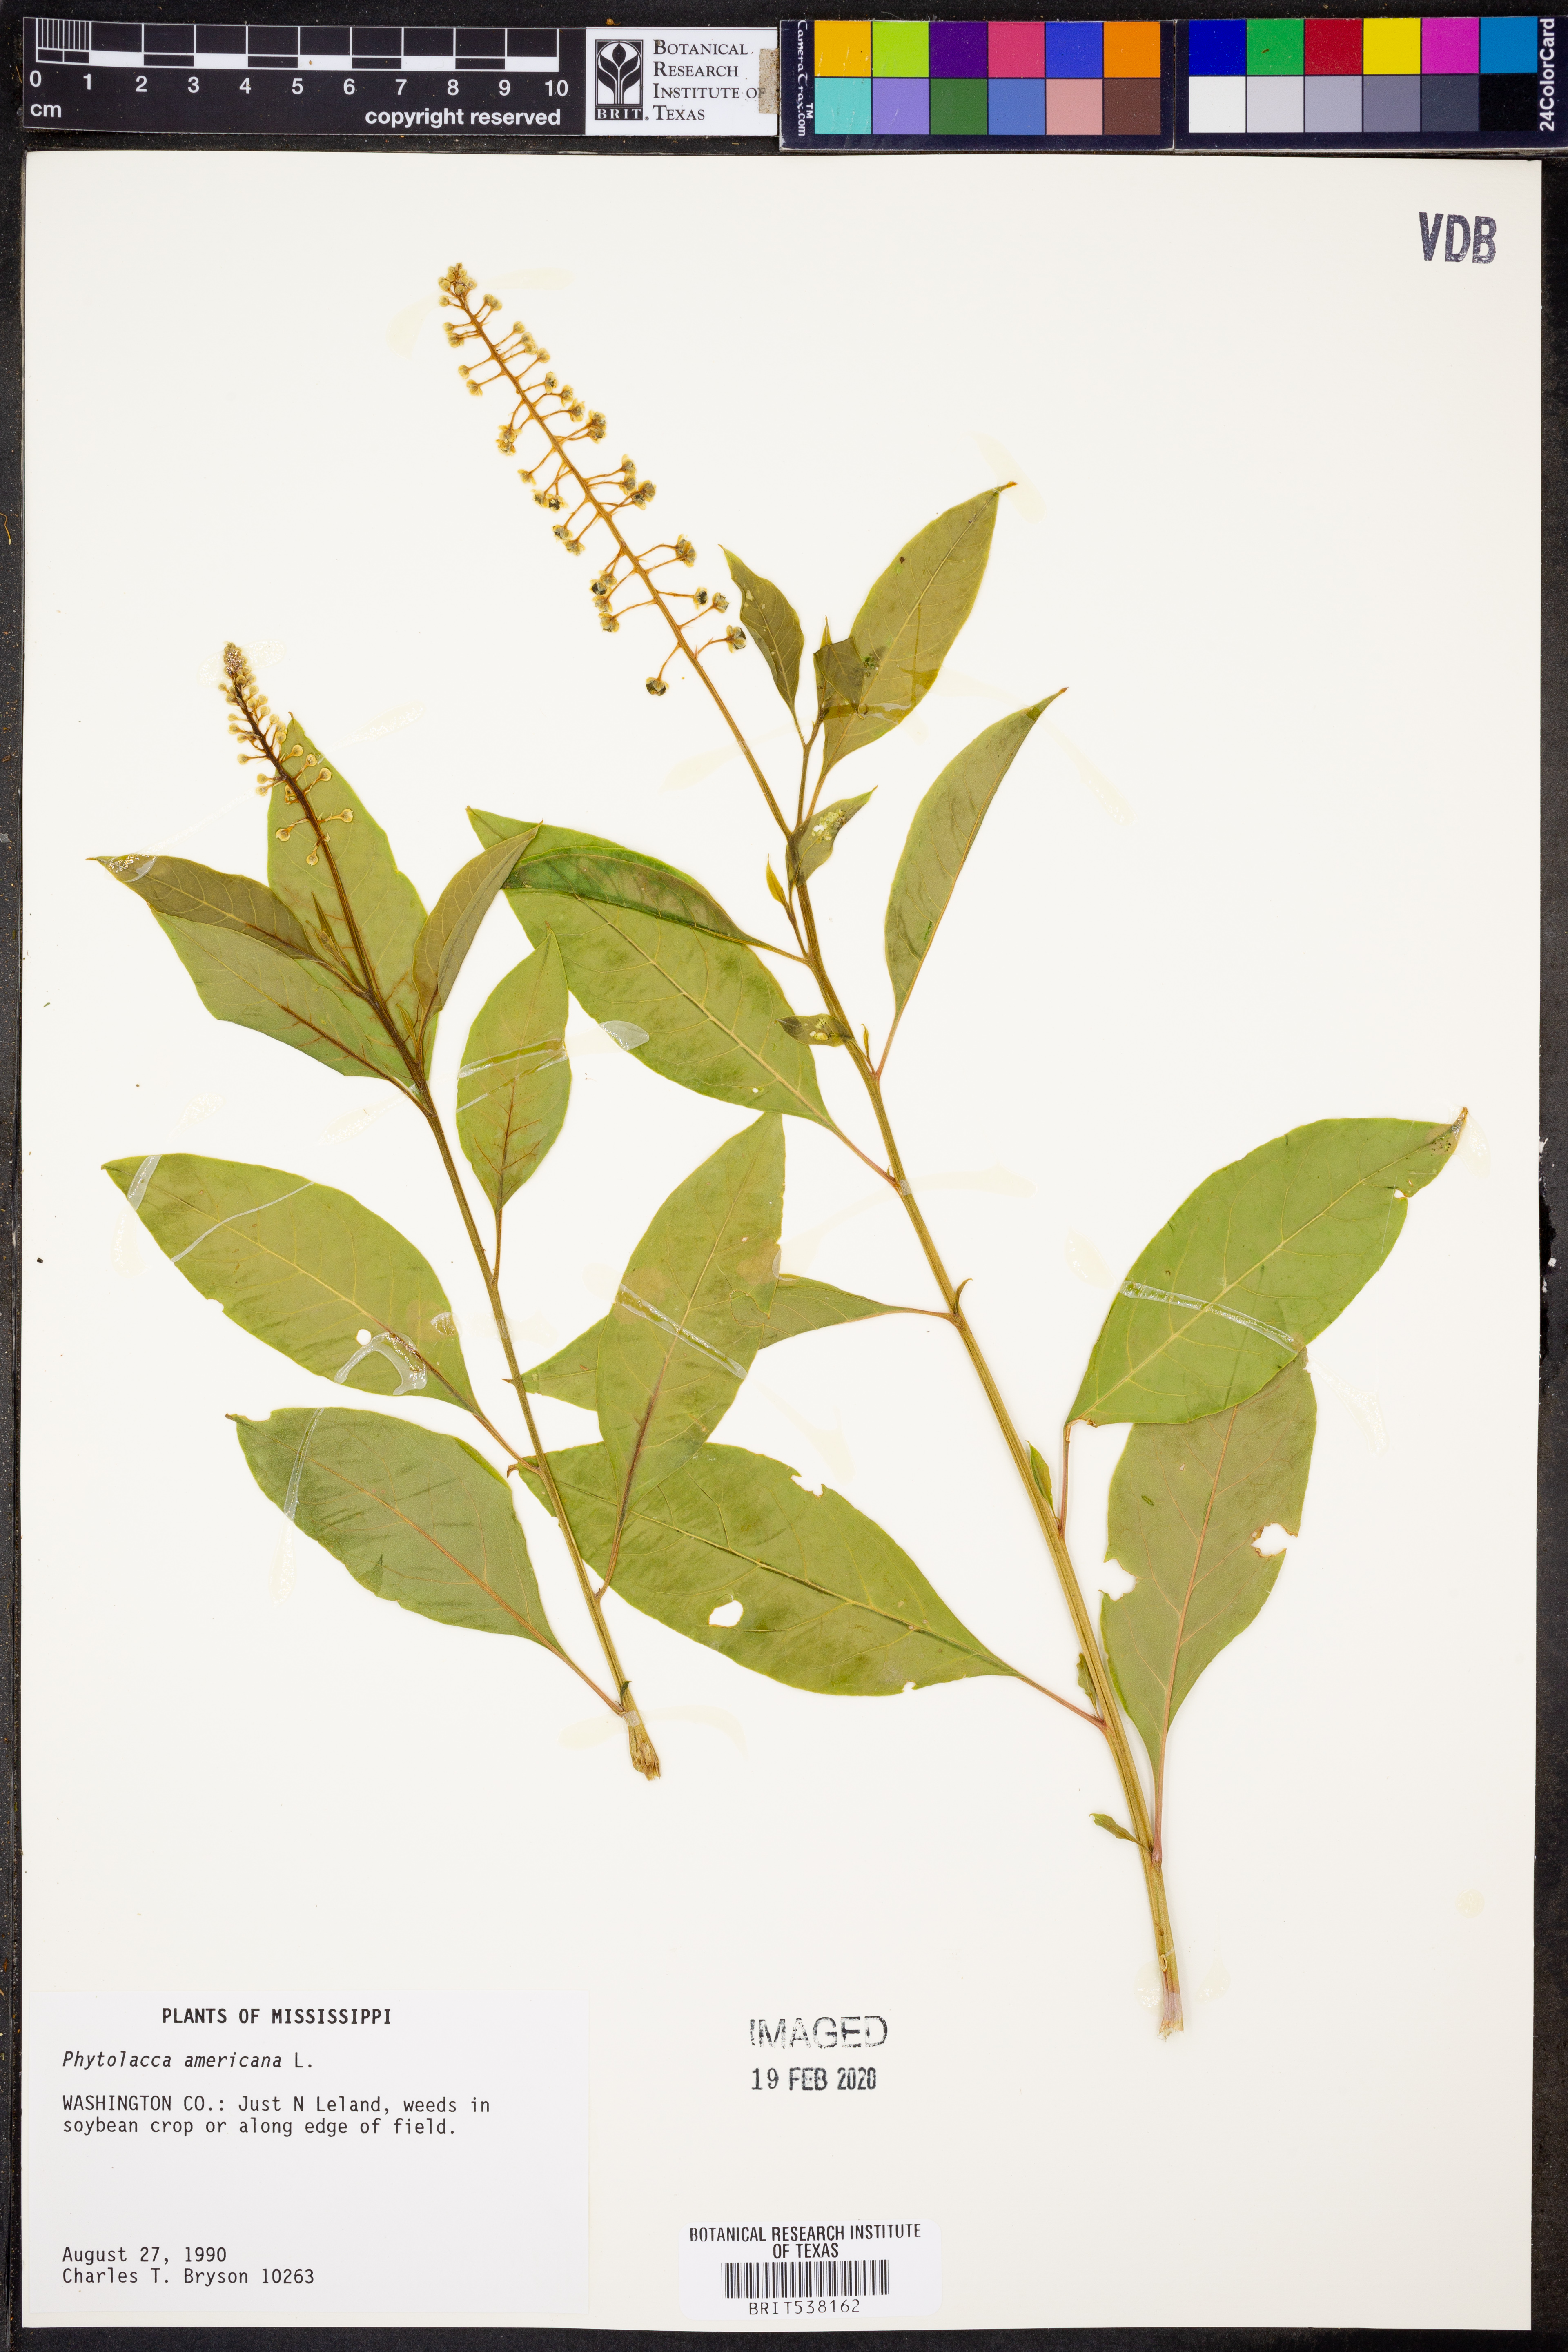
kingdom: Plantae
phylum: Tracheophyta
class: Magnoliopsida
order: Caryophyllales
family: Phytolaccaceae
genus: Phytolacca
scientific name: Phytolacca americana
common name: American pokeweed
